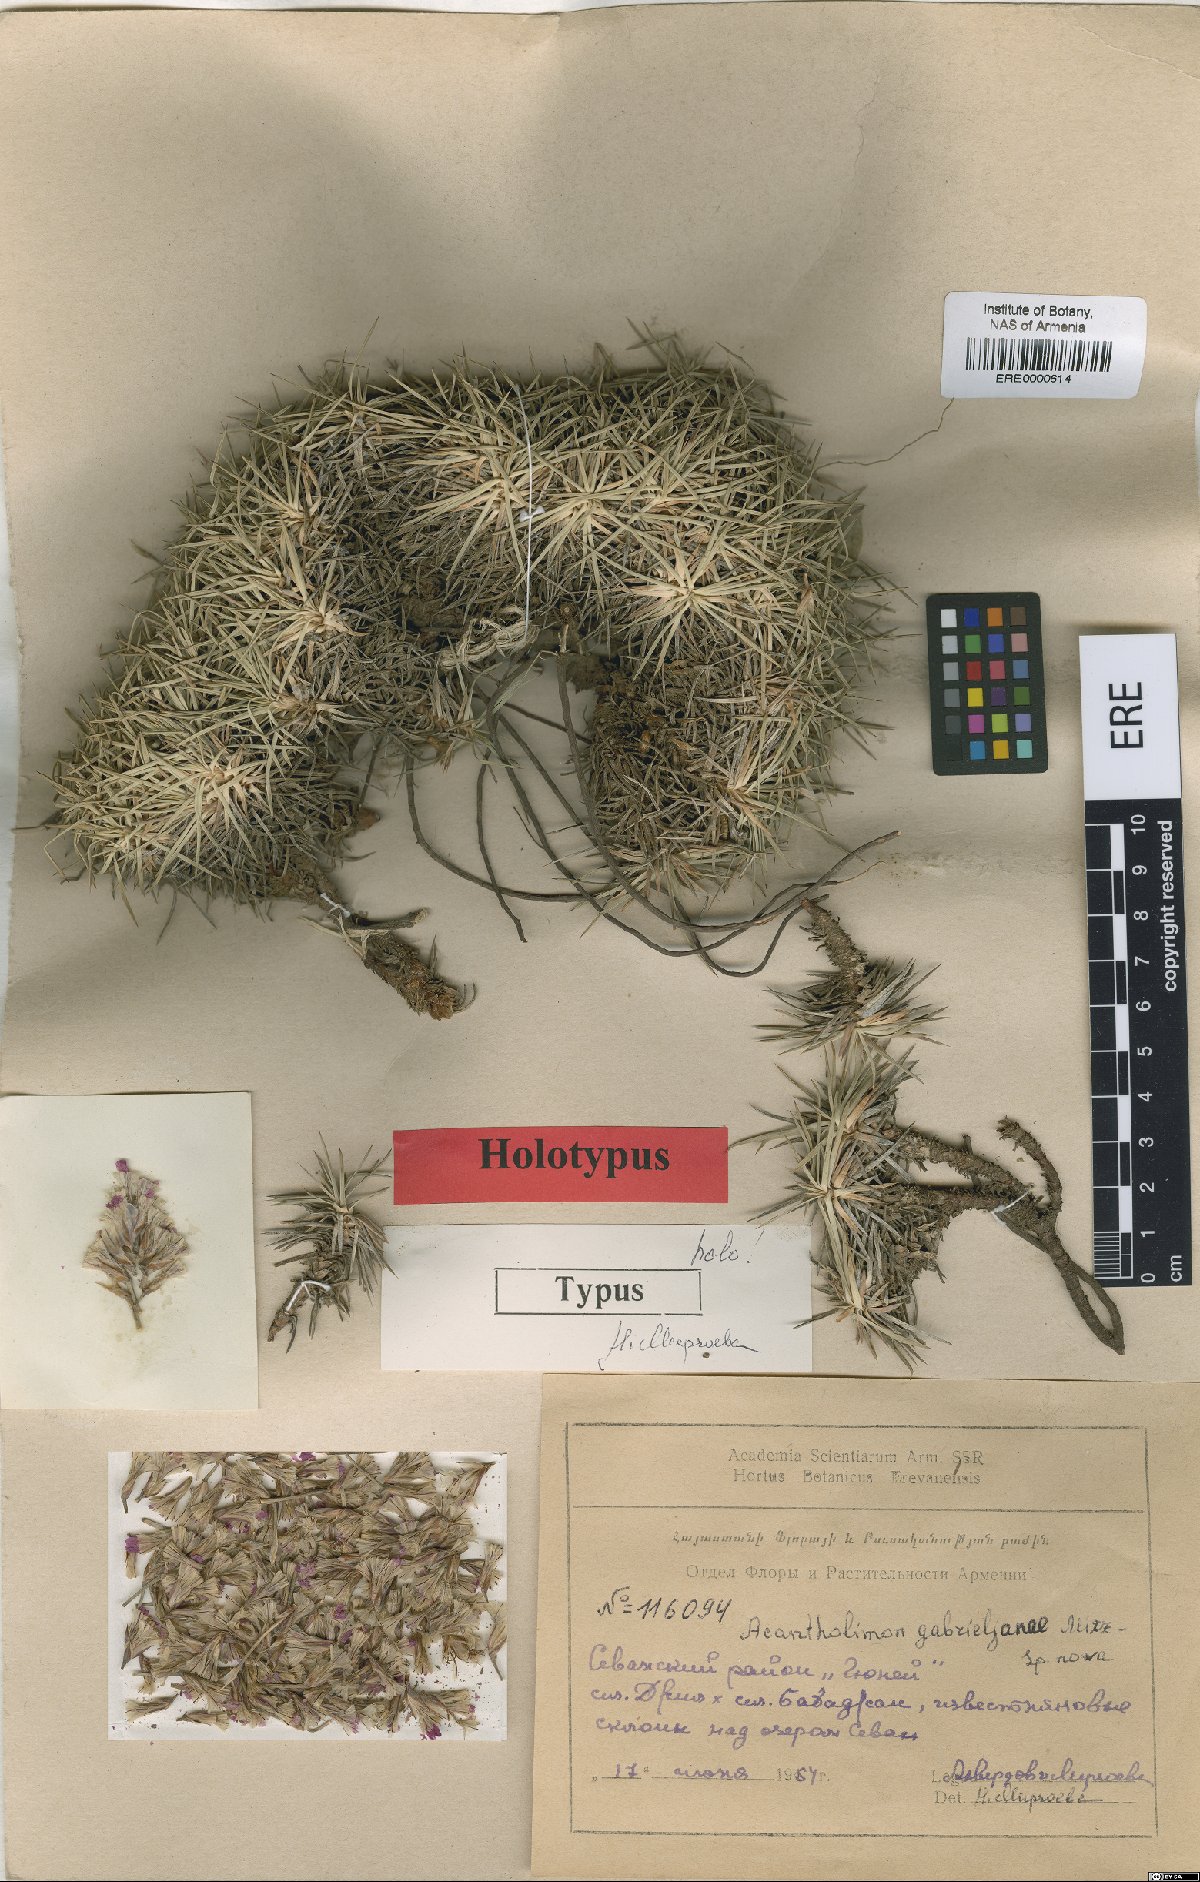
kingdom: Plantae
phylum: Tracheophyta
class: Magnoliopsida
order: Caryophyllales
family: Plumbaginaceae
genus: Acantholimon
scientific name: Acantholimon gabrieljaniae
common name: Gabrielyan's prickly-thrift
